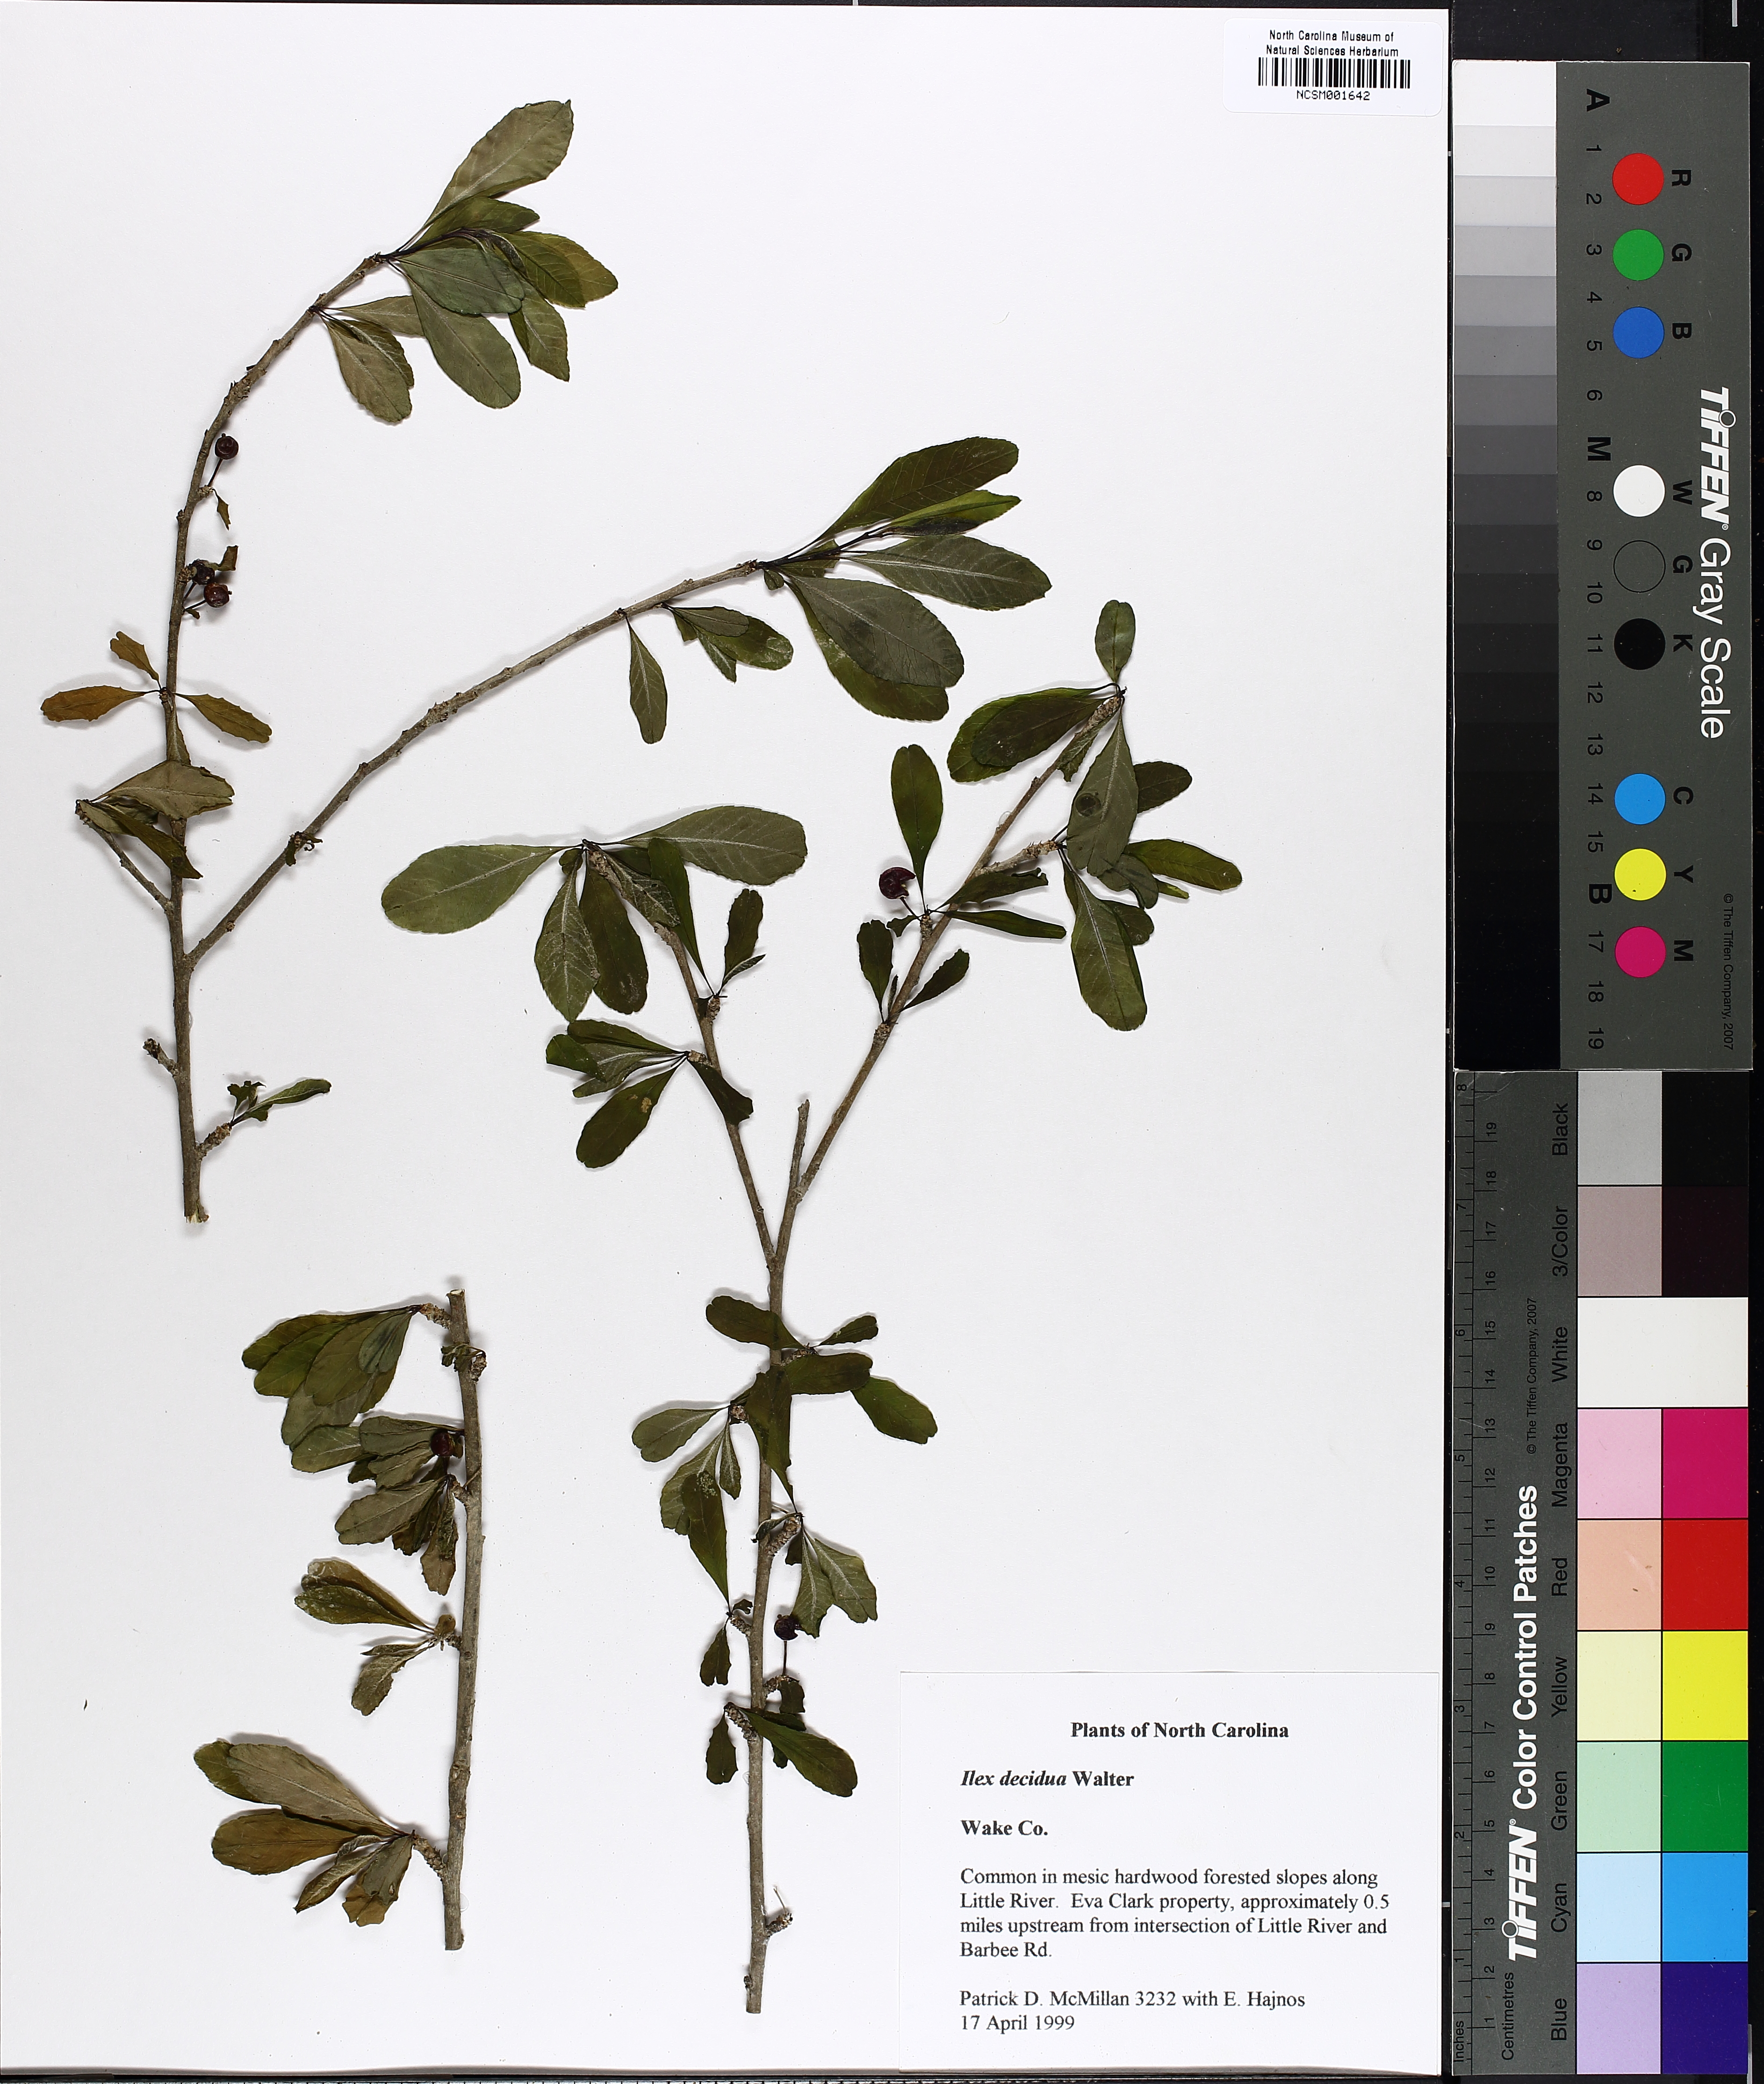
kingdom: Plantae
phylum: Tracheophyta
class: Magnoliopsida
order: Aquifoliales
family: Aquifoliaceae
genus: Ilex
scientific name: Ilex decidua
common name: Possum-haw
